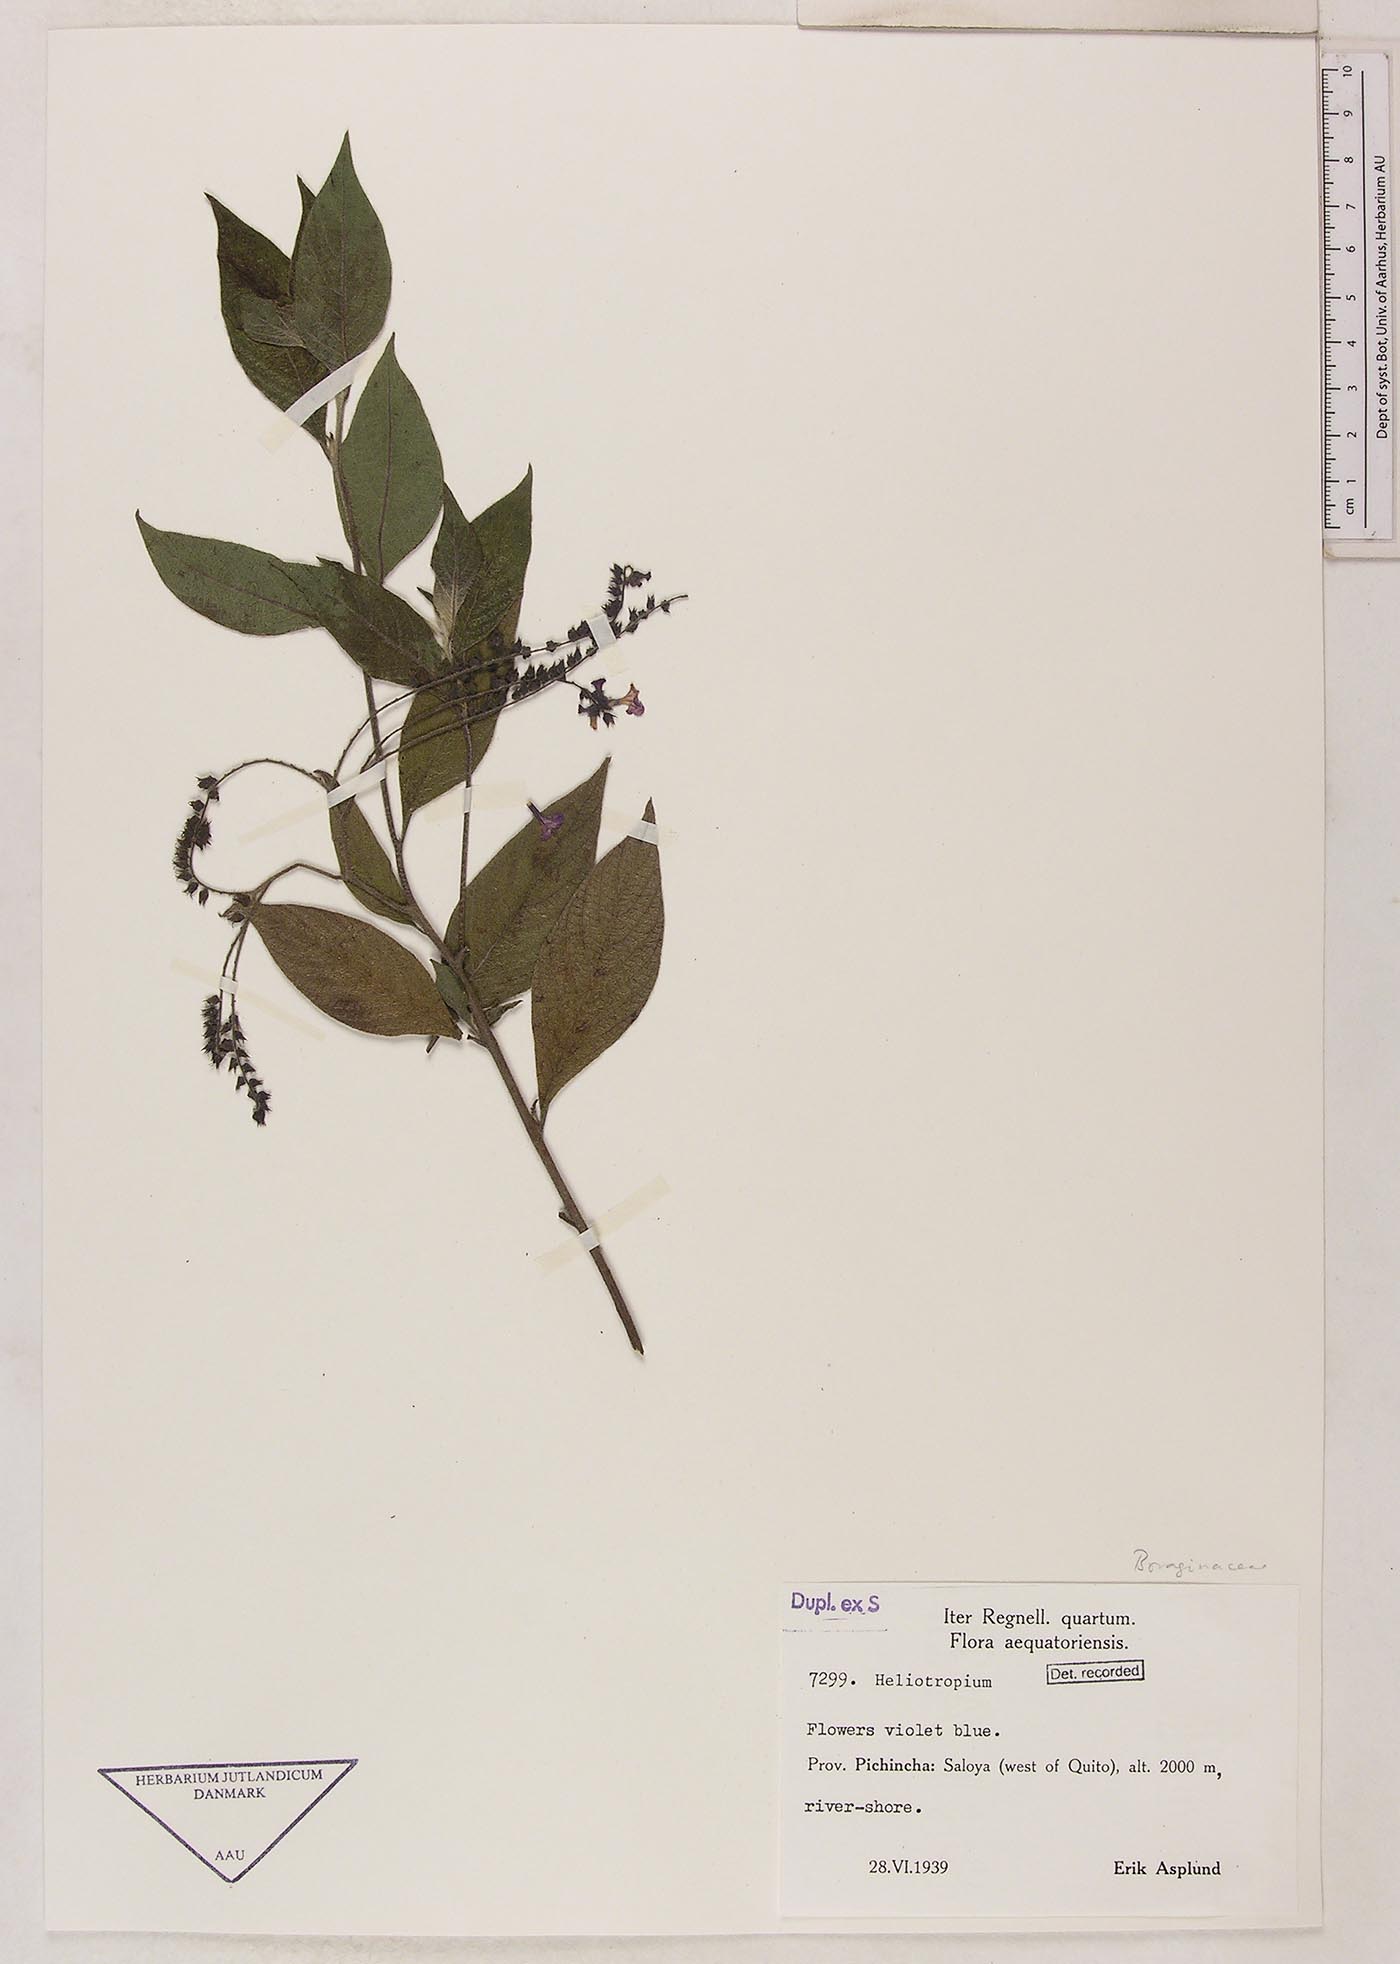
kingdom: Plantae
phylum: Tracheophyta
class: Magnoliopsida
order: Boraginales
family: Heliotropiaceae
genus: Heliotropium
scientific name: Heliotropium arborescens
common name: Cherry-pie
